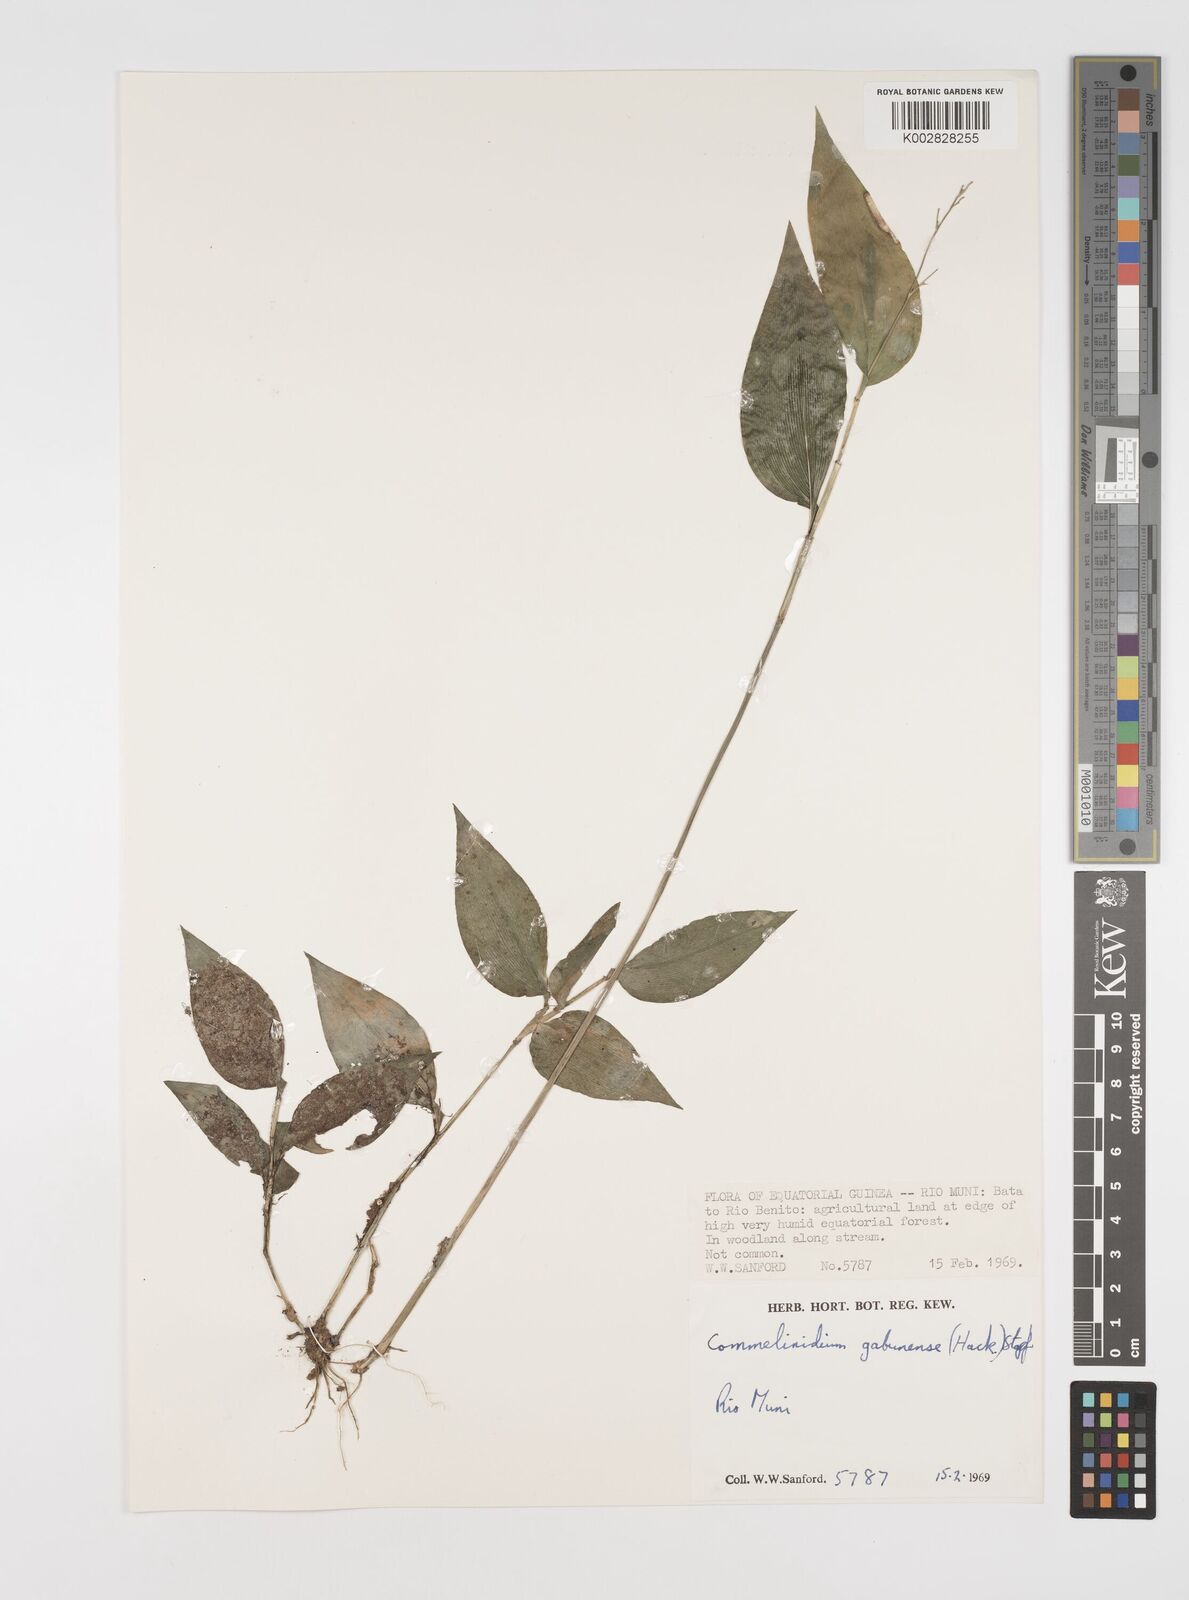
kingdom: Plantae
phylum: Tracheophyta
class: Liliopsida
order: Poales
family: Poaceae
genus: Acroceras
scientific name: Acroceras gabunense
